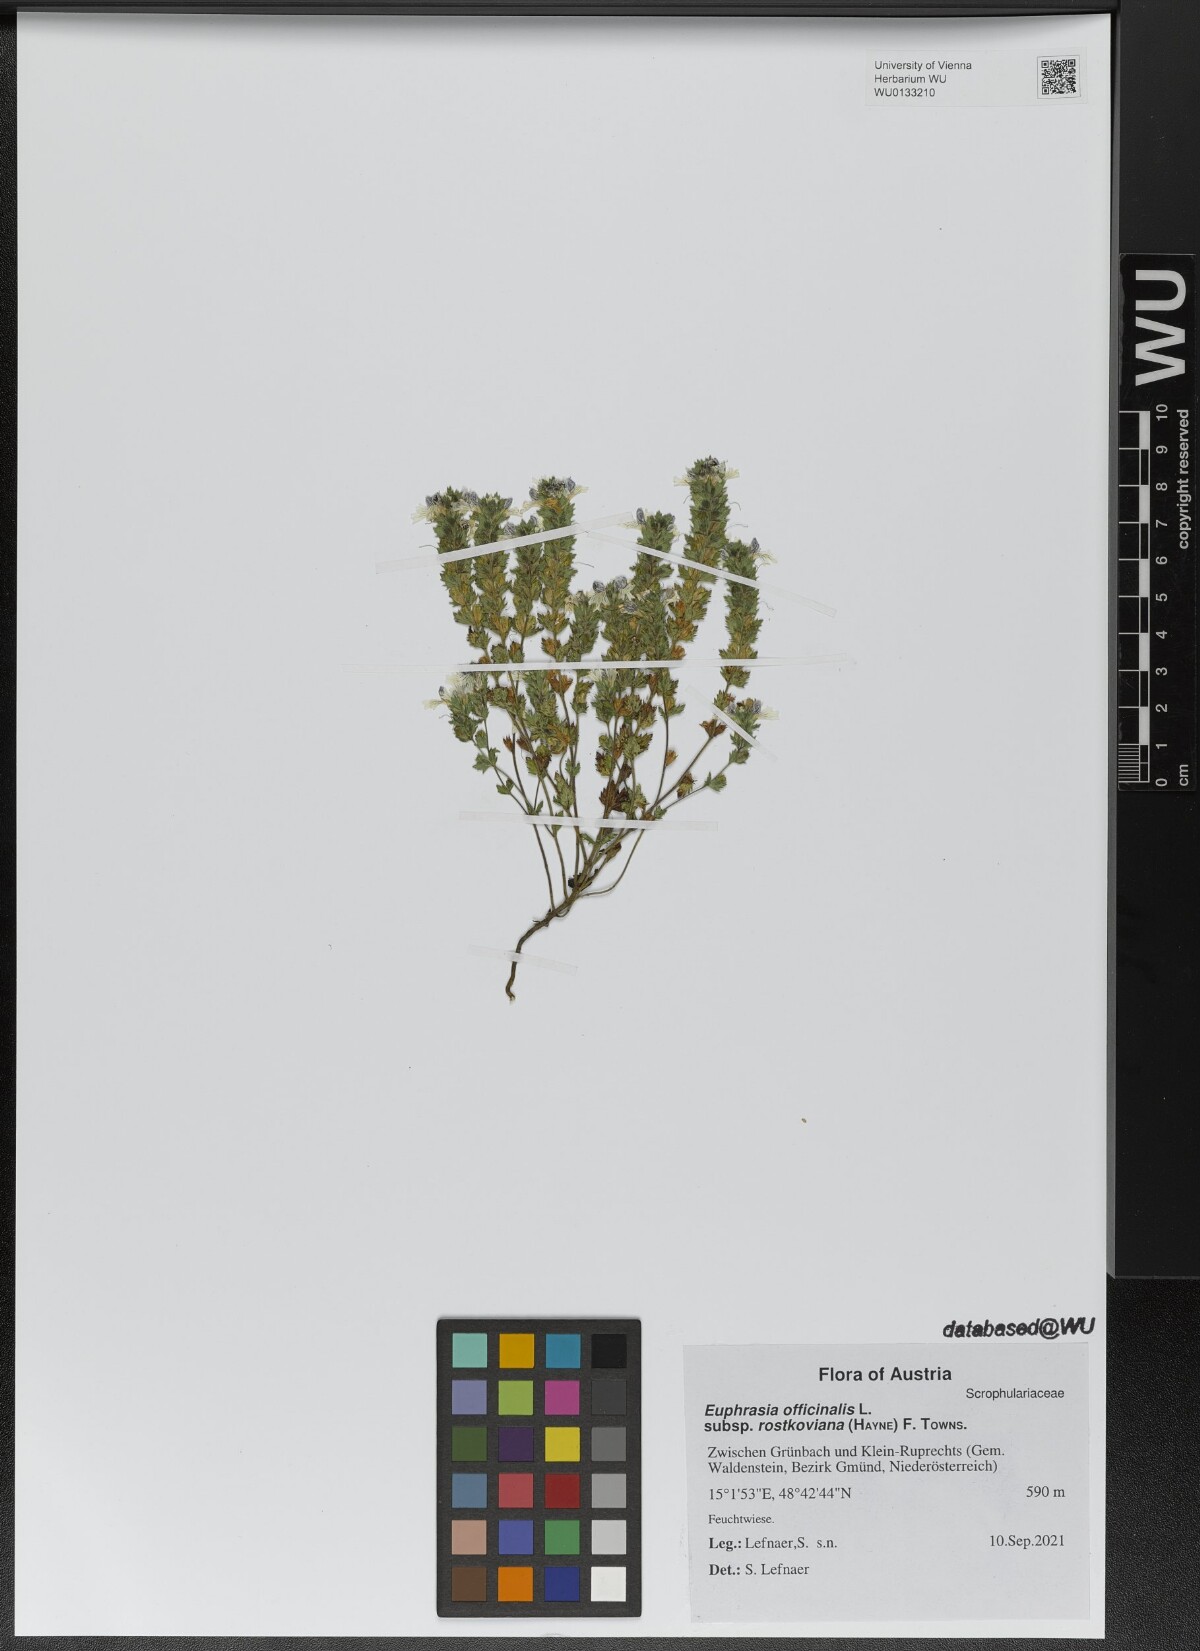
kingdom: Plantae
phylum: Tracheophyta
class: Magnoliopsida
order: Lamiales
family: Orobanchaceae
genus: Euphrasia
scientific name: Euphrasia officinalis
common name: Eyebright
